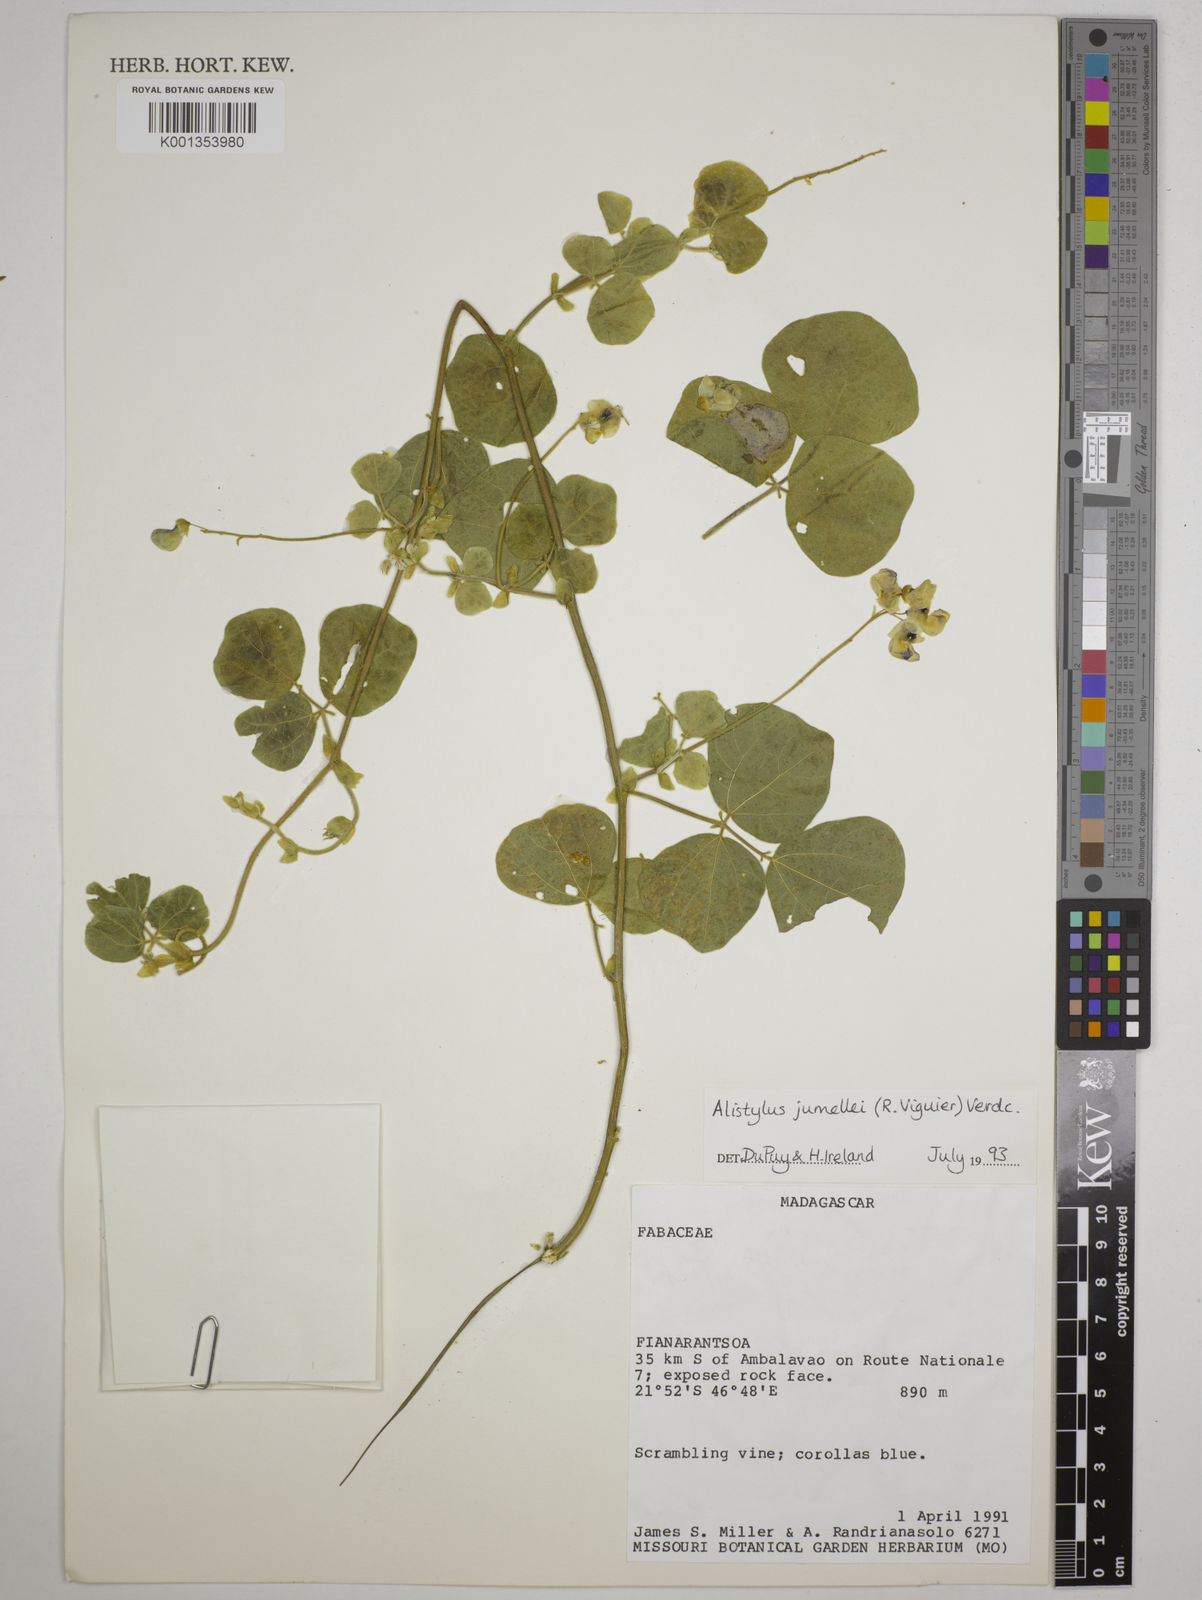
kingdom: Plantae
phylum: Tracheophyta
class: Magnoliopsida
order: Fabales
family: Fabaceae
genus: Alistilus
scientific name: Alistilus jumellei
